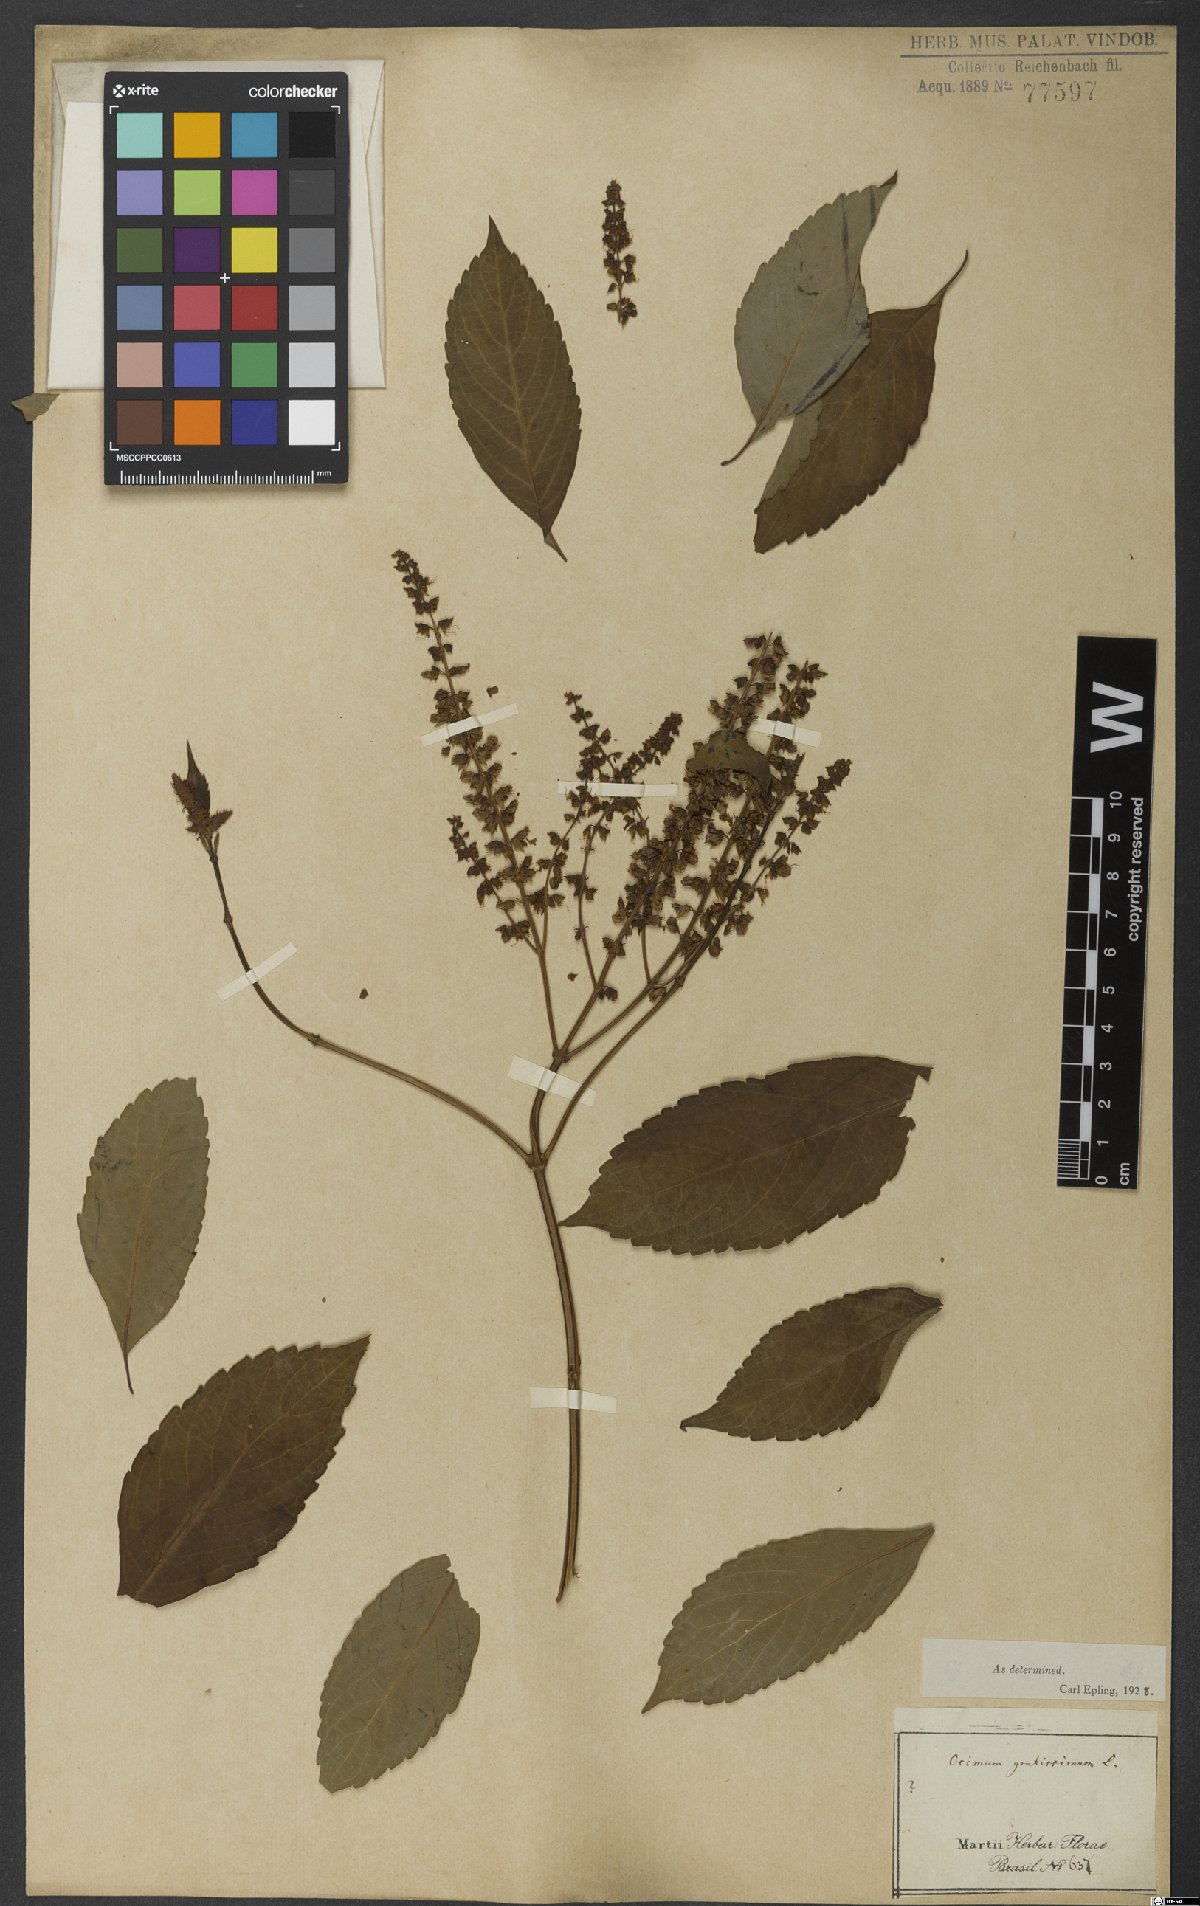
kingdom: Plantae
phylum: Tracheophyta
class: Magnoliopsida
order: Lamiales
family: Lamiaceae
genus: Ocimum
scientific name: Ocimum gratissimum
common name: African basil
